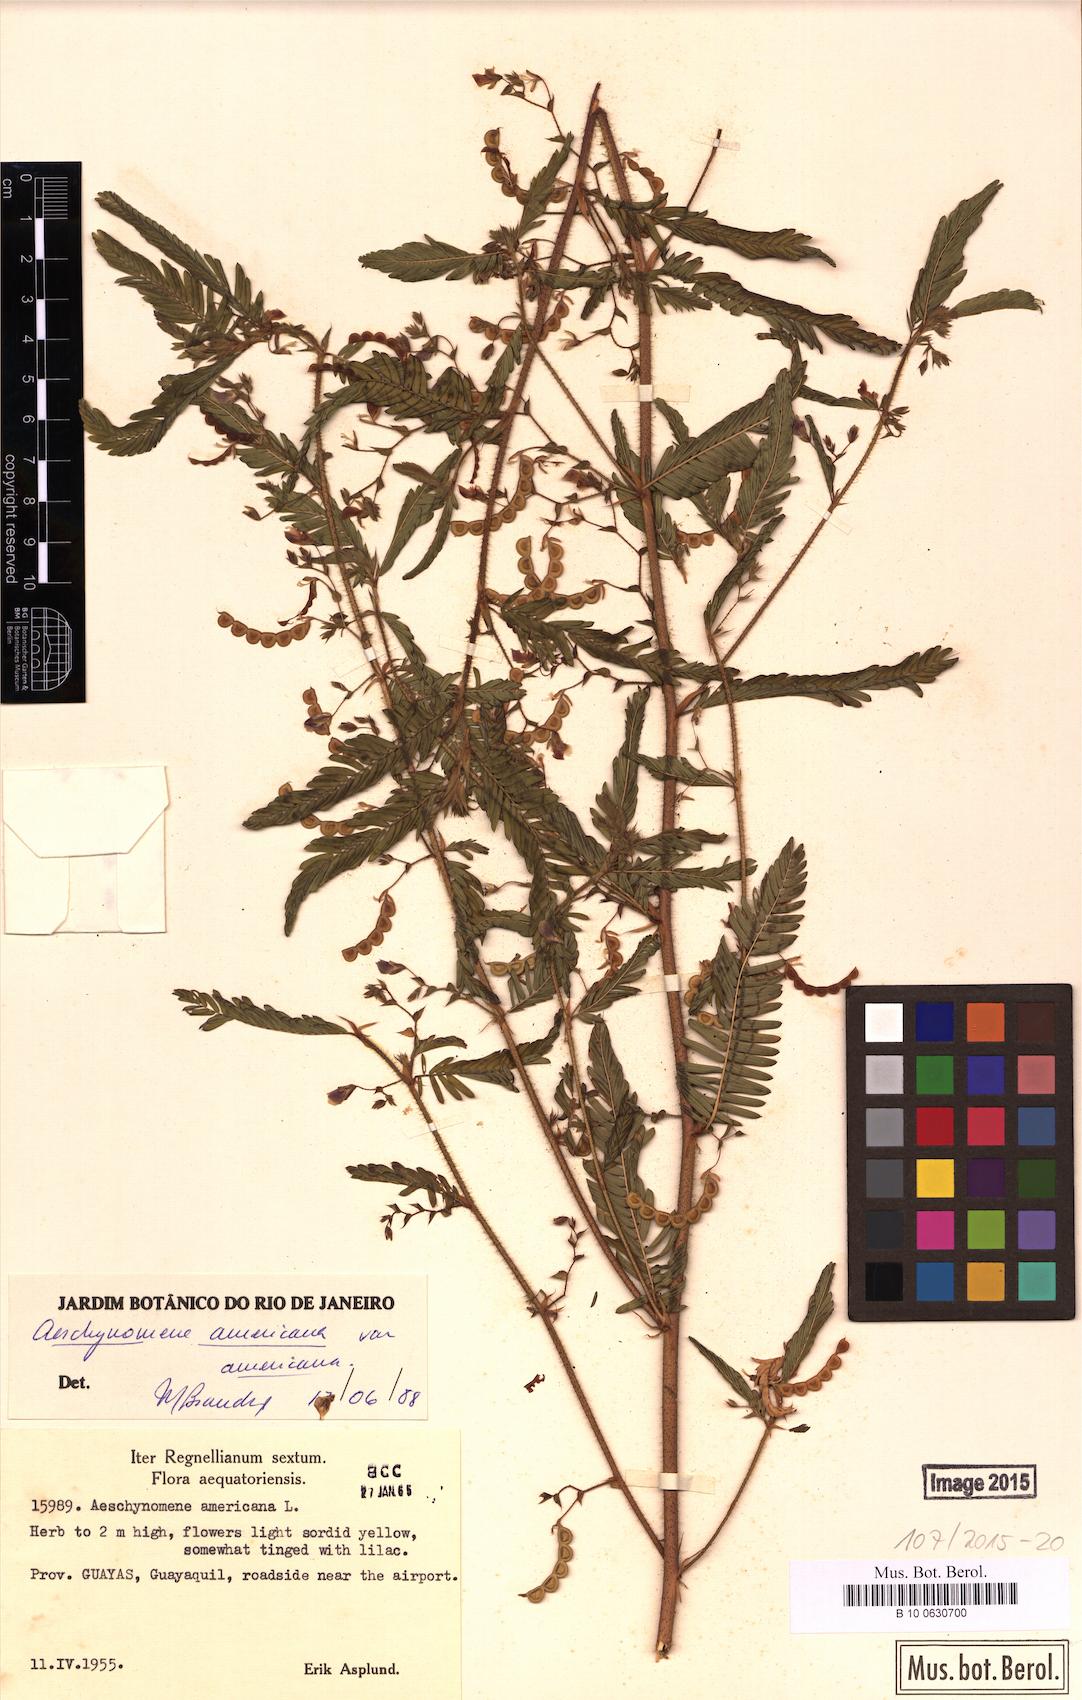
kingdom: Plantae
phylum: Tracheophyta
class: Magnoliopsida
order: Fabales
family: Fabaceae
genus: Aeschynomene
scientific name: Aeschynomene americana
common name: Joint-vetch
